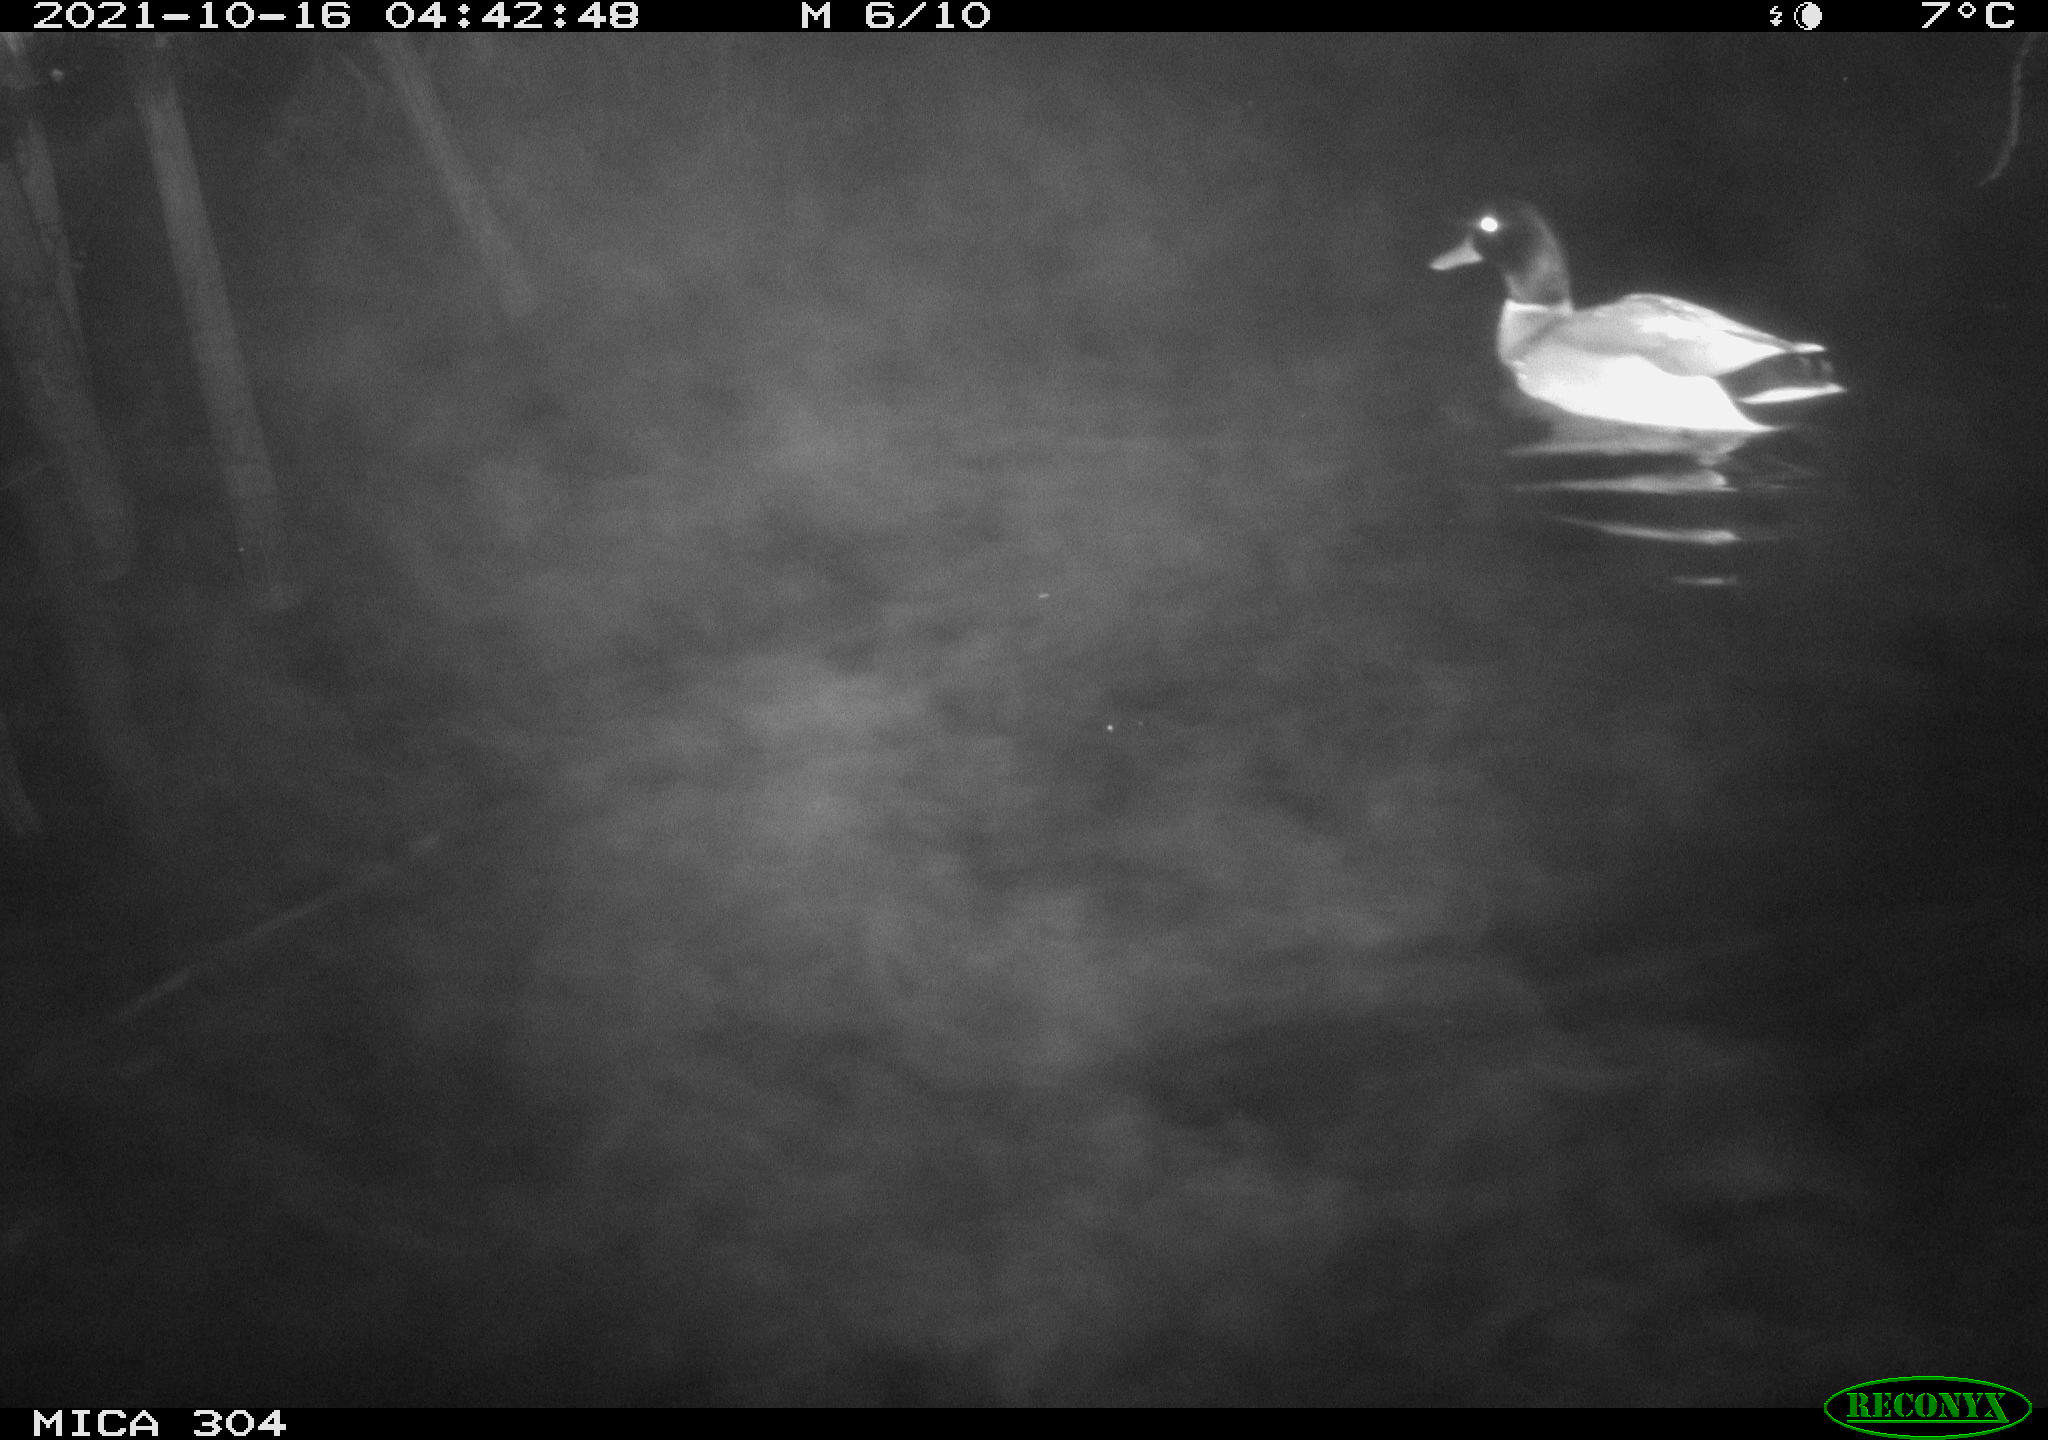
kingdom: Animalia
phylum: Chordata
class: Aves
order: Anseriformes
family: Anatidae
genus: Anas
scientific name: Anas platyrhynchos
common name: Mallard
